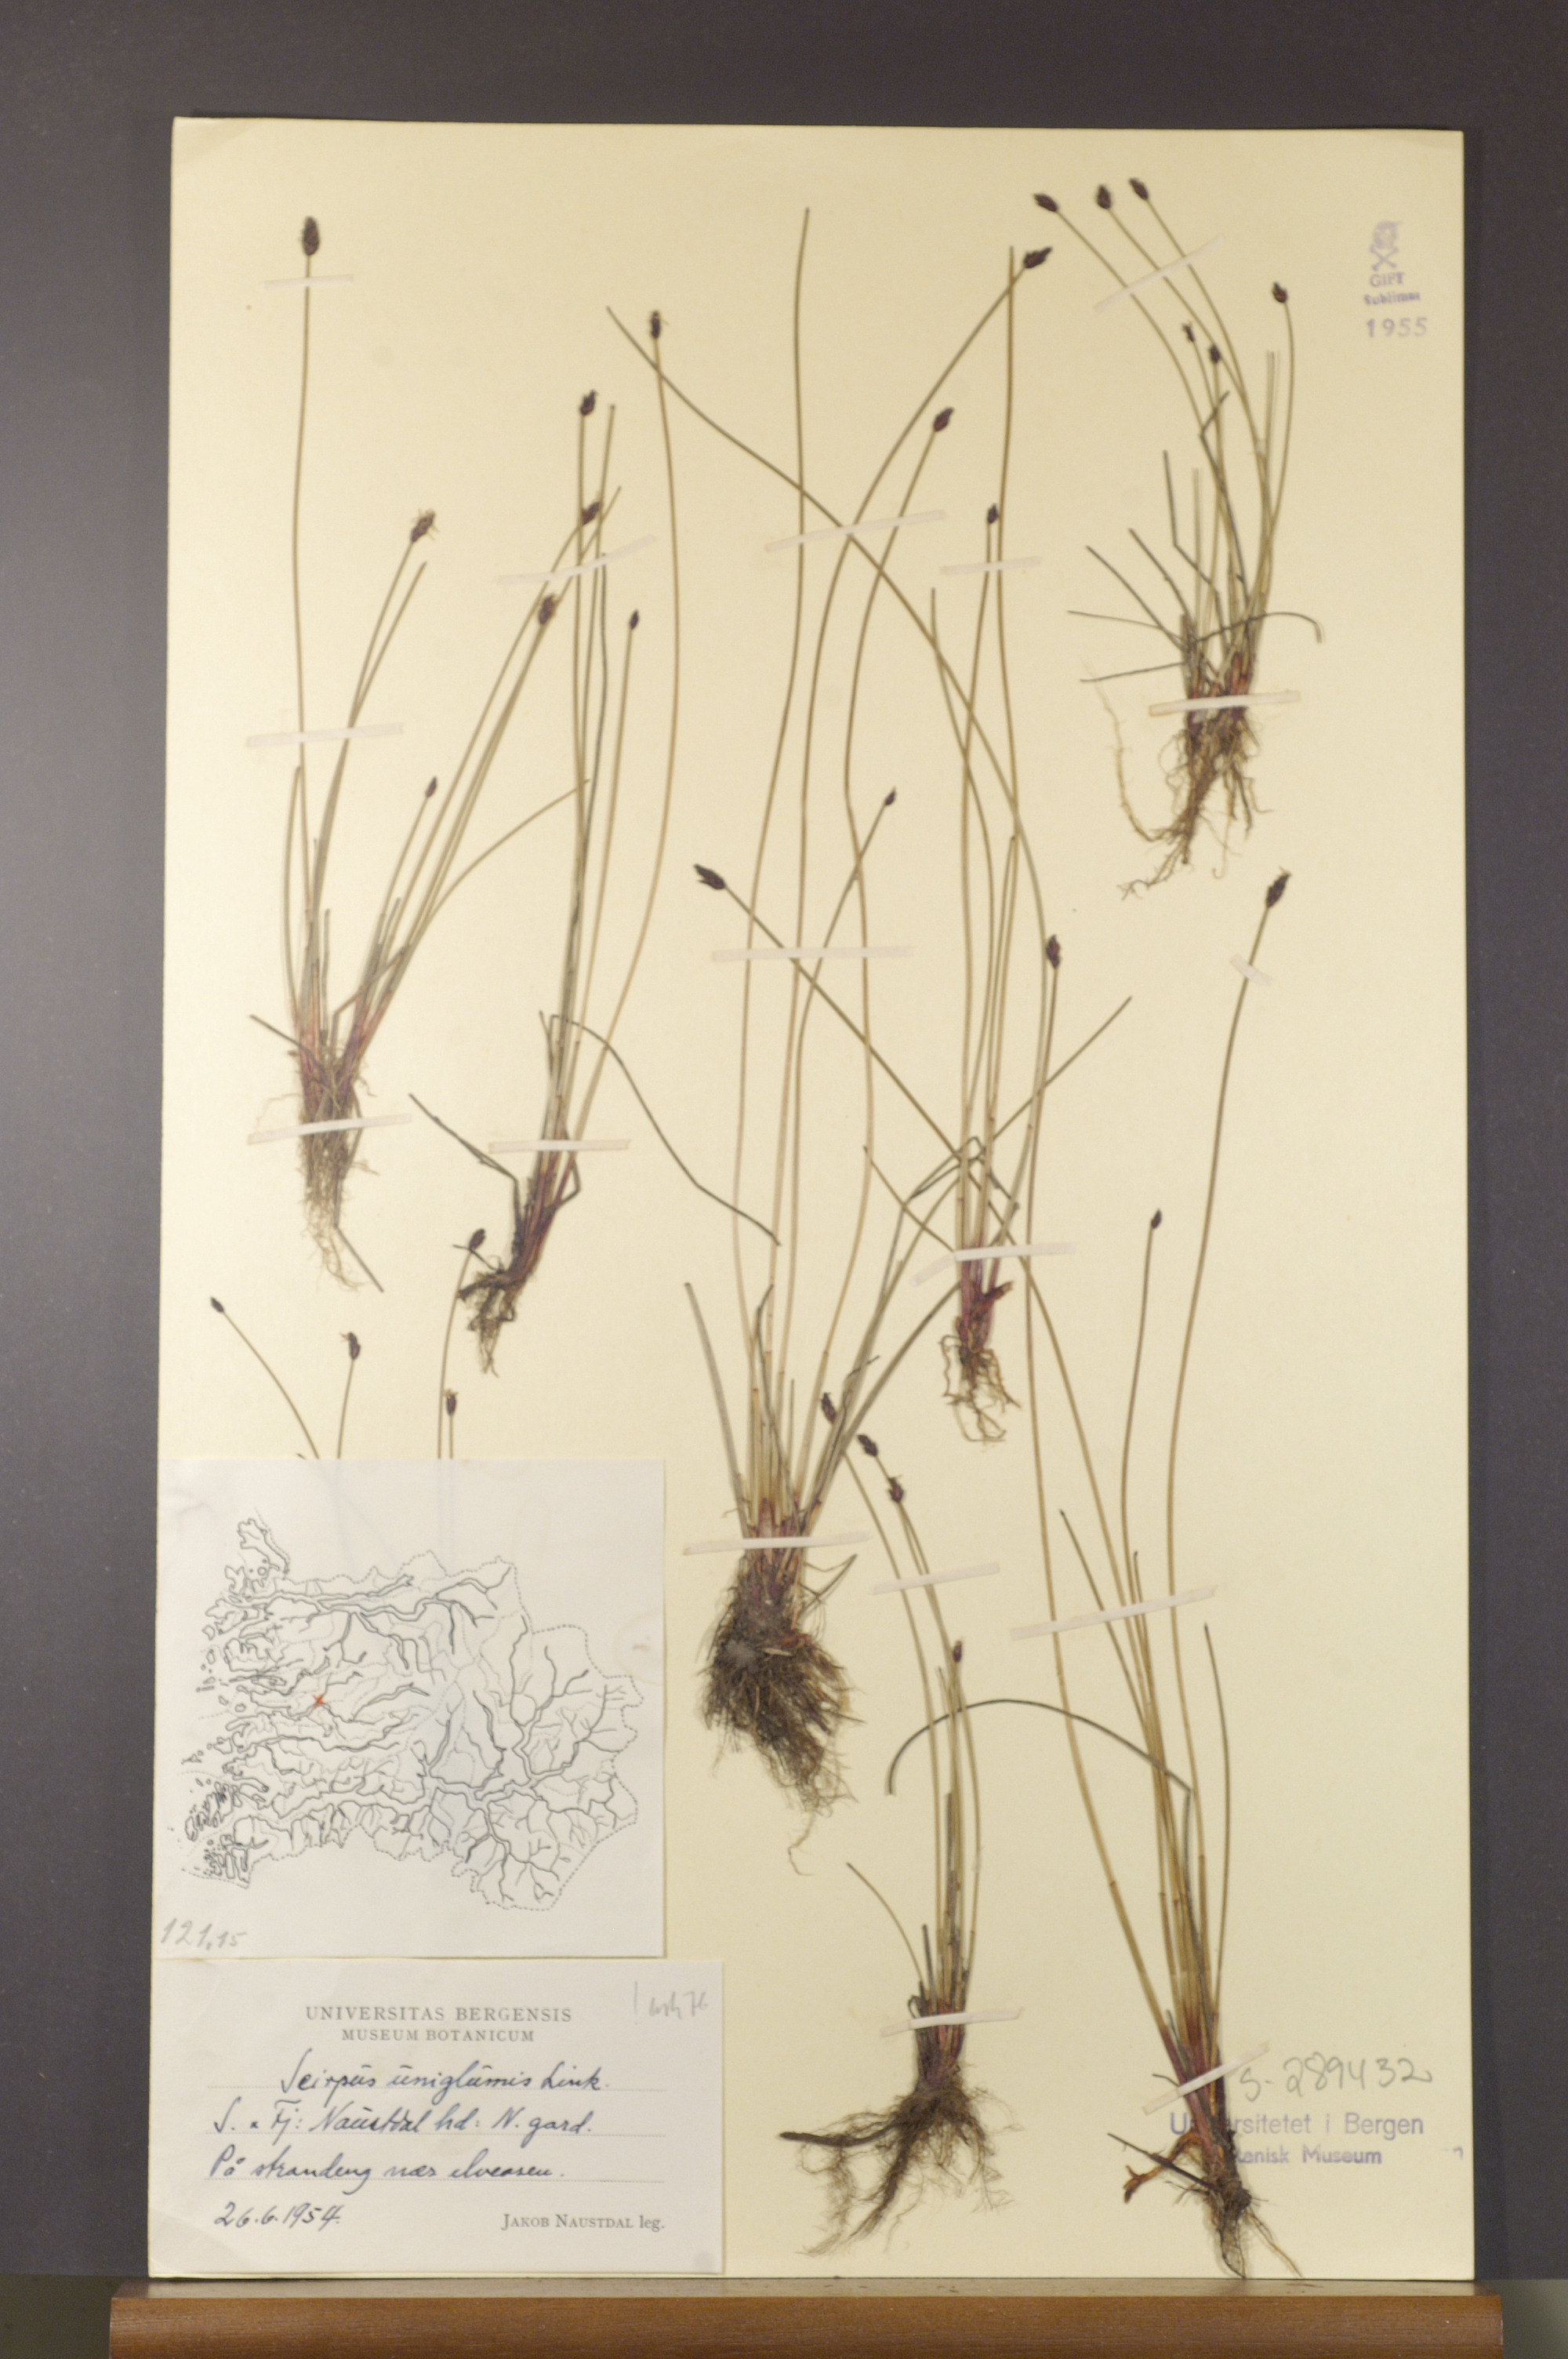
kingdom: Plantae
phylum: Tracheophyta
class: Liliopsida
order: Poales
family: Cyperaceae
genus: Eleocharis
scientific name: Eleocharis uniglumis
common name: Slender spike-rush
